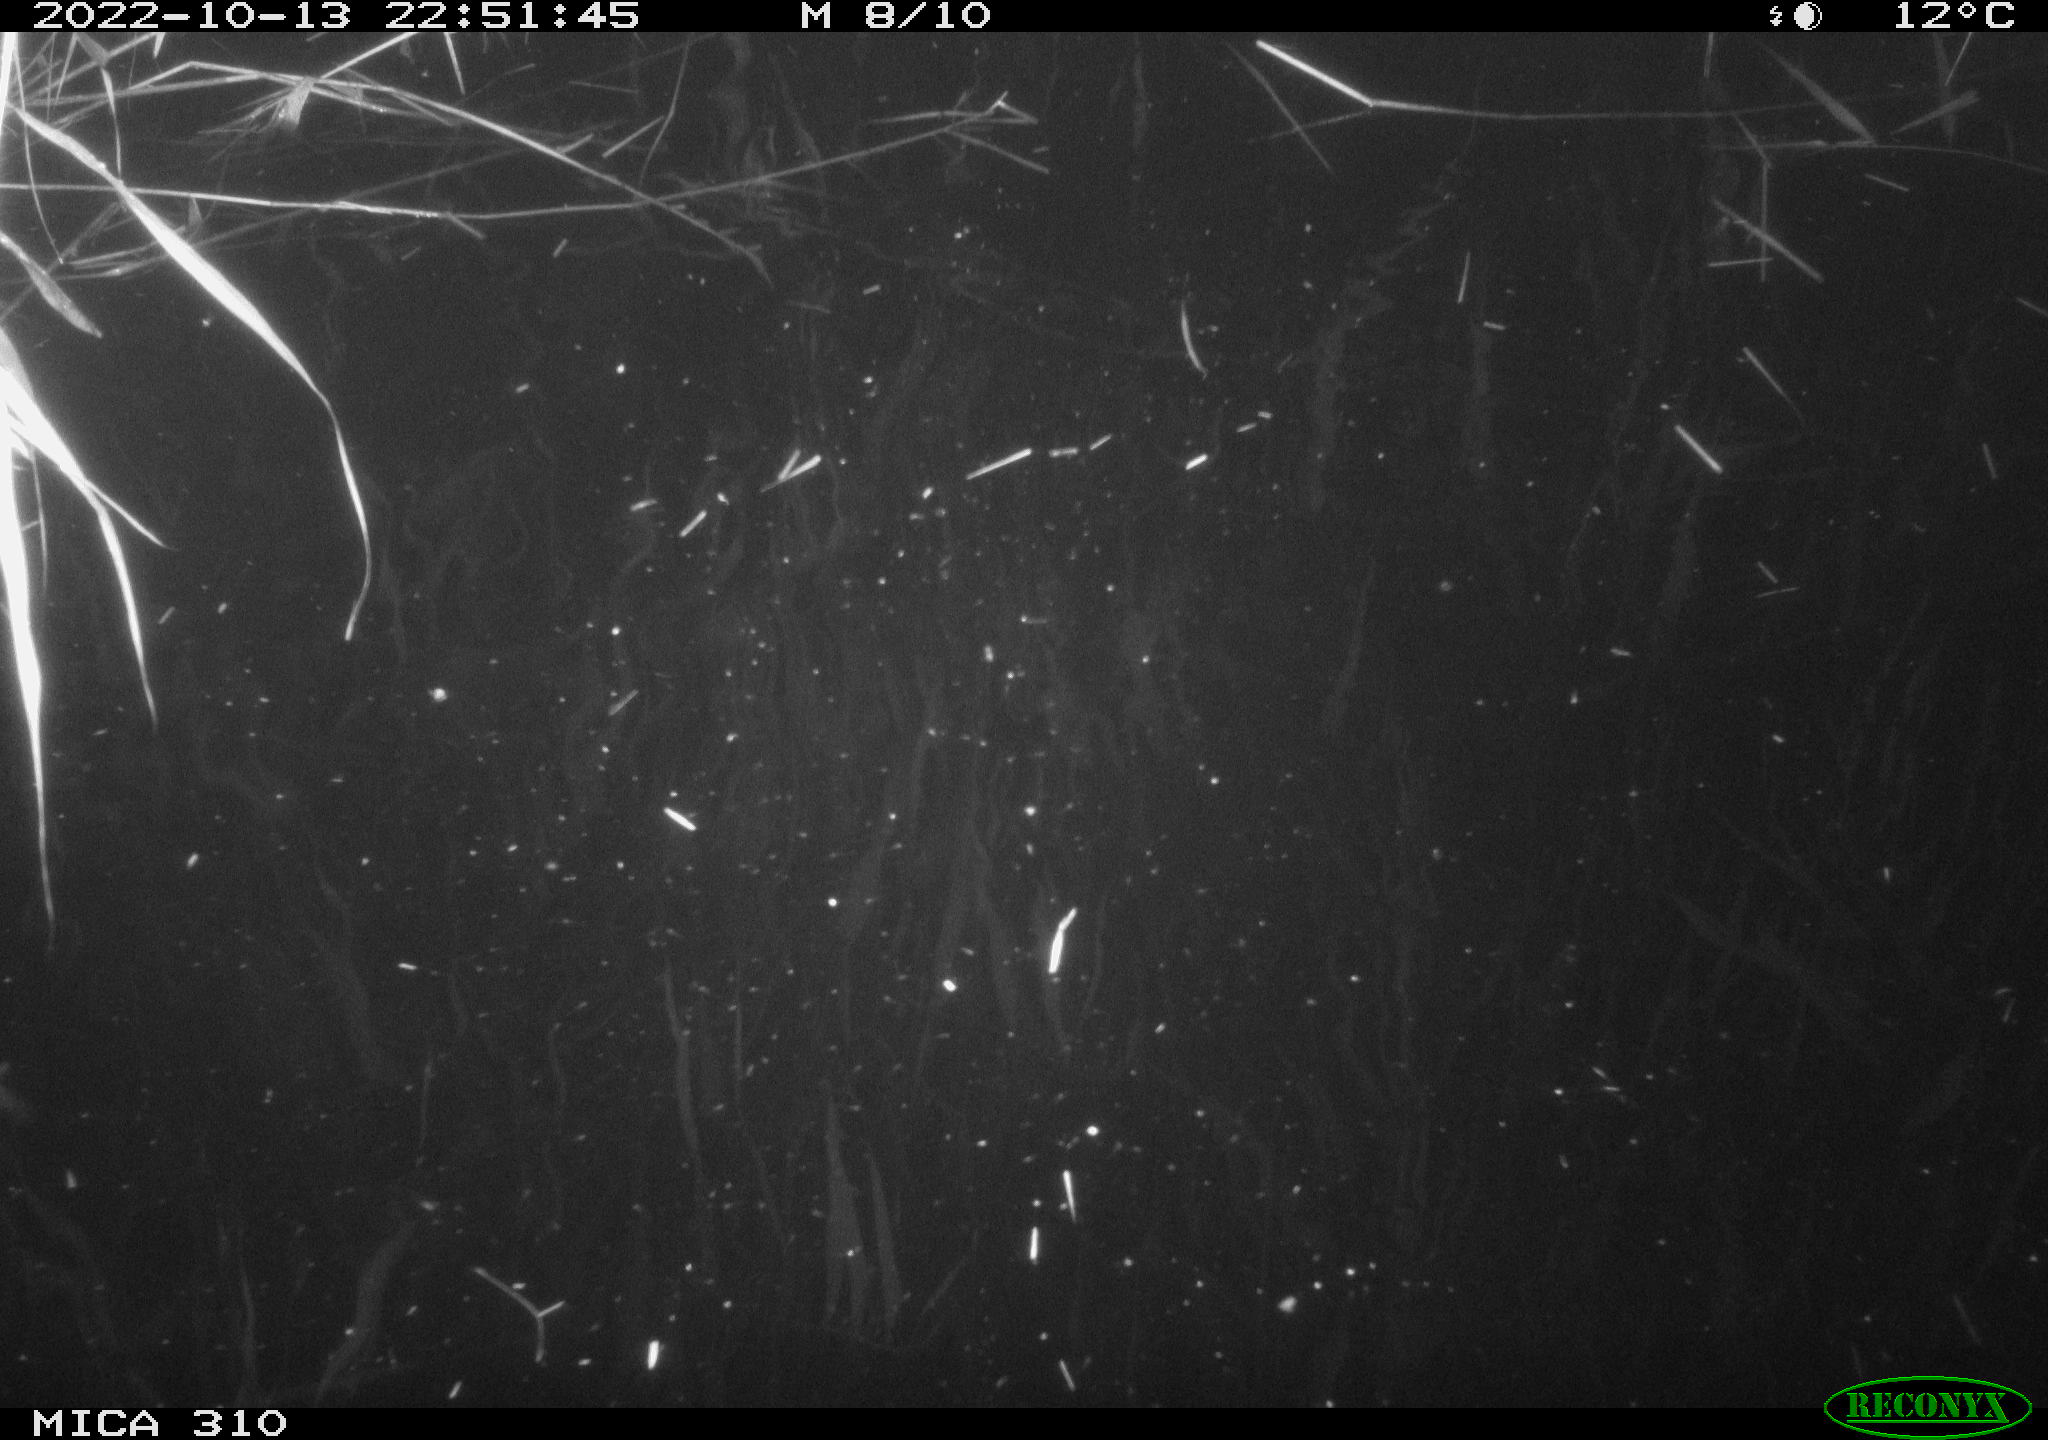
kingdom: Animalia
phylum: Chordata
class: Mammalia
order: Rodentia
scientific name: Rodentia
